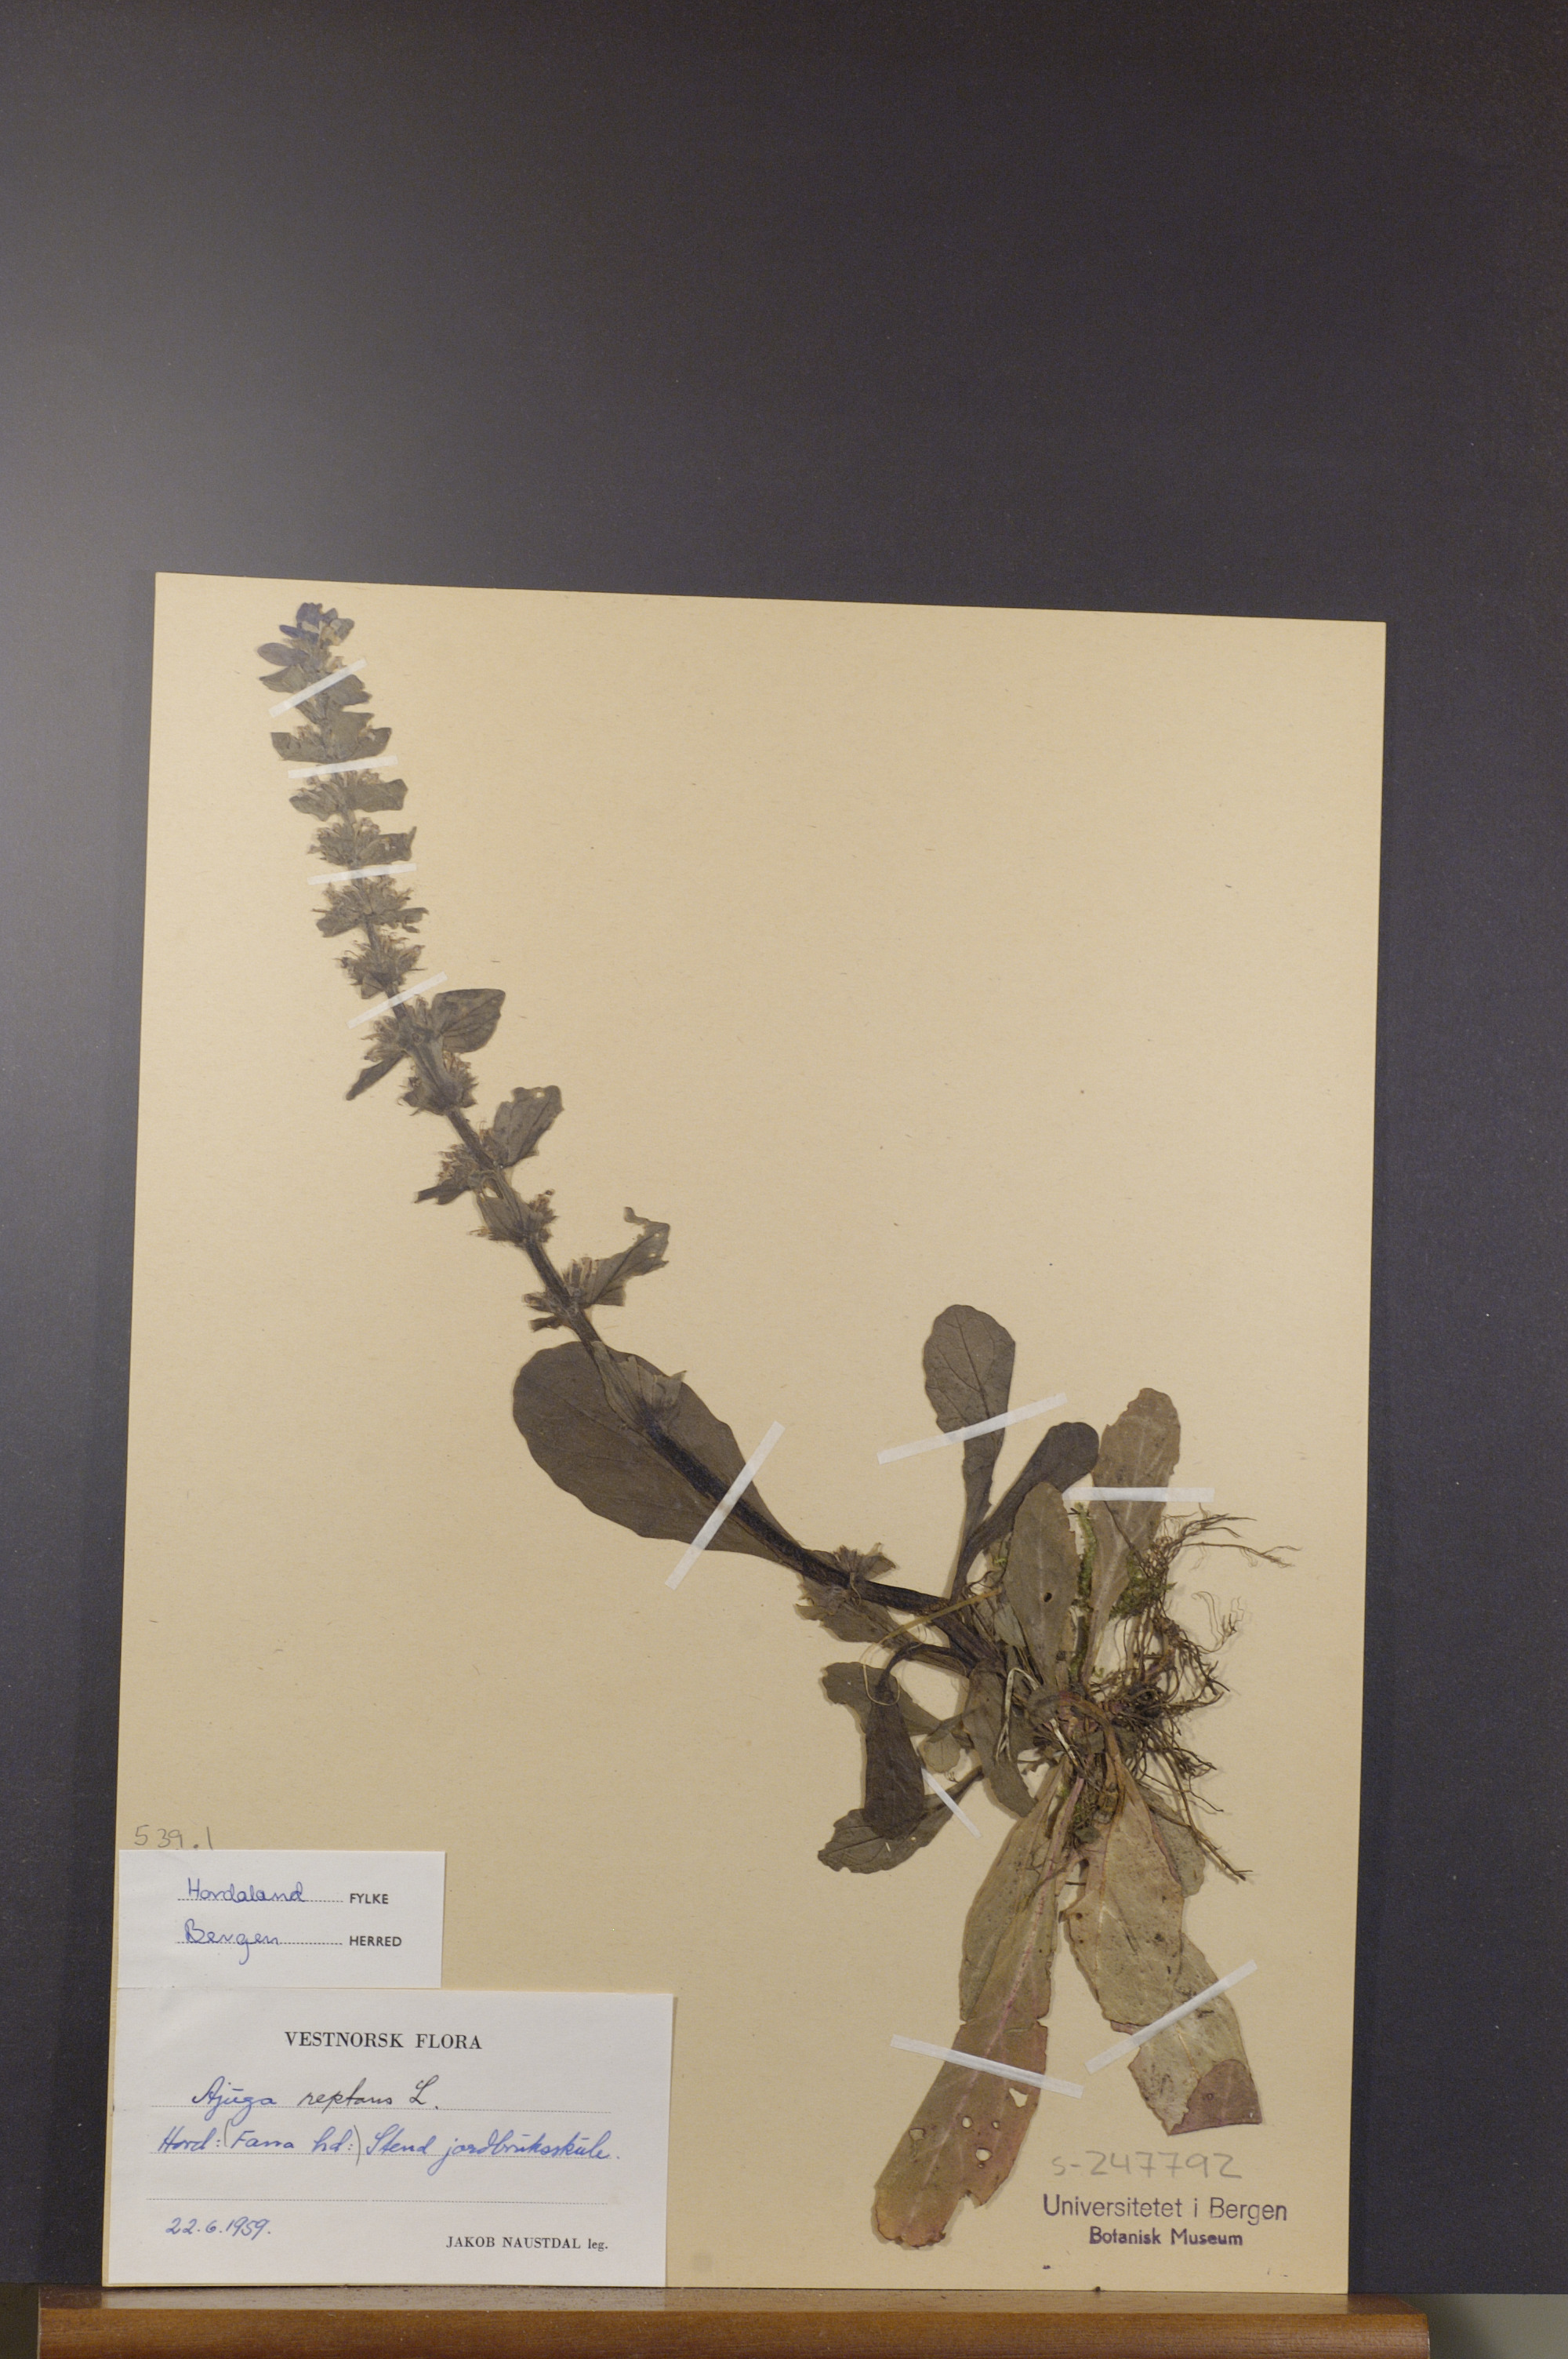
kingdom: Plantae
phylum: Tracheophyta
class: Magnoliopsida
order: Lamiales
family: Lamiaceae
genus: Ajuga
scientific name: Ajuga reptans
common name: Bugle
